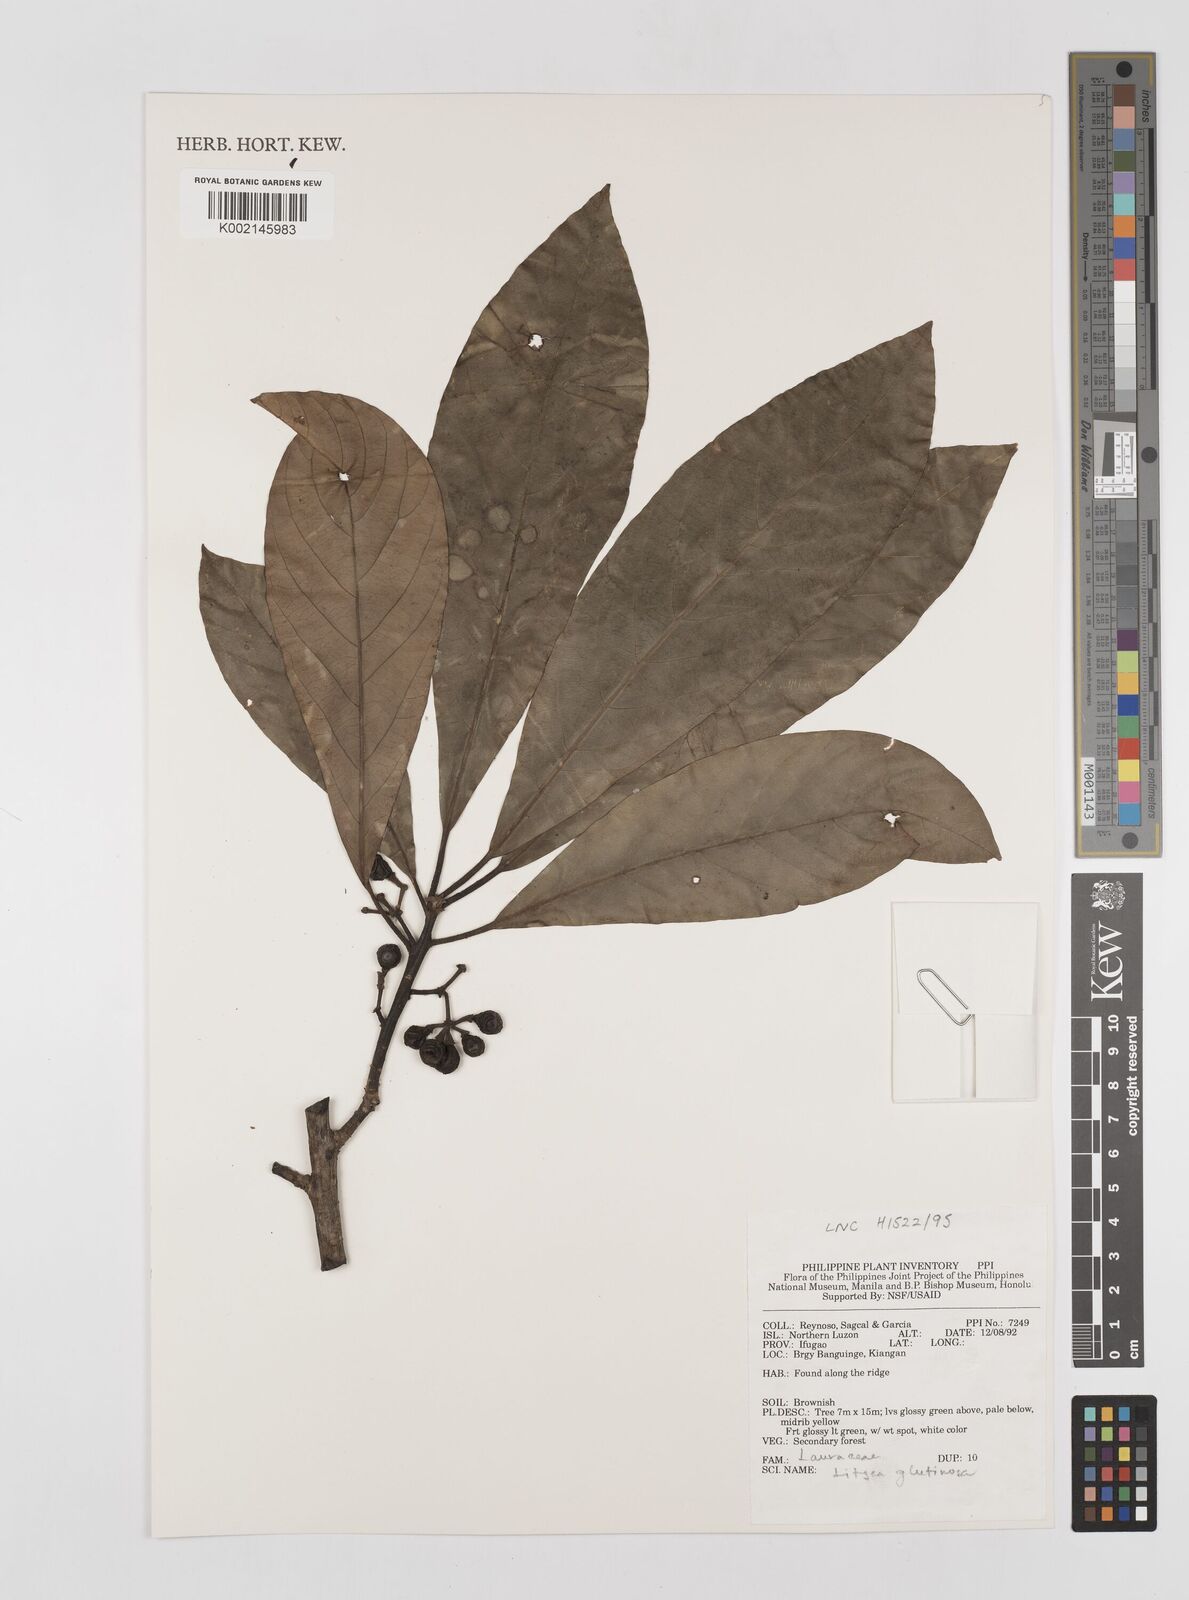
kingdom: Plantae
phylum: Tracheophyta
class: Magnoliopsida
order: Laurales
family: Lauraceae
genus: Litsea
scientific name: Litsea glutinosa
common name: Indian-laurel
